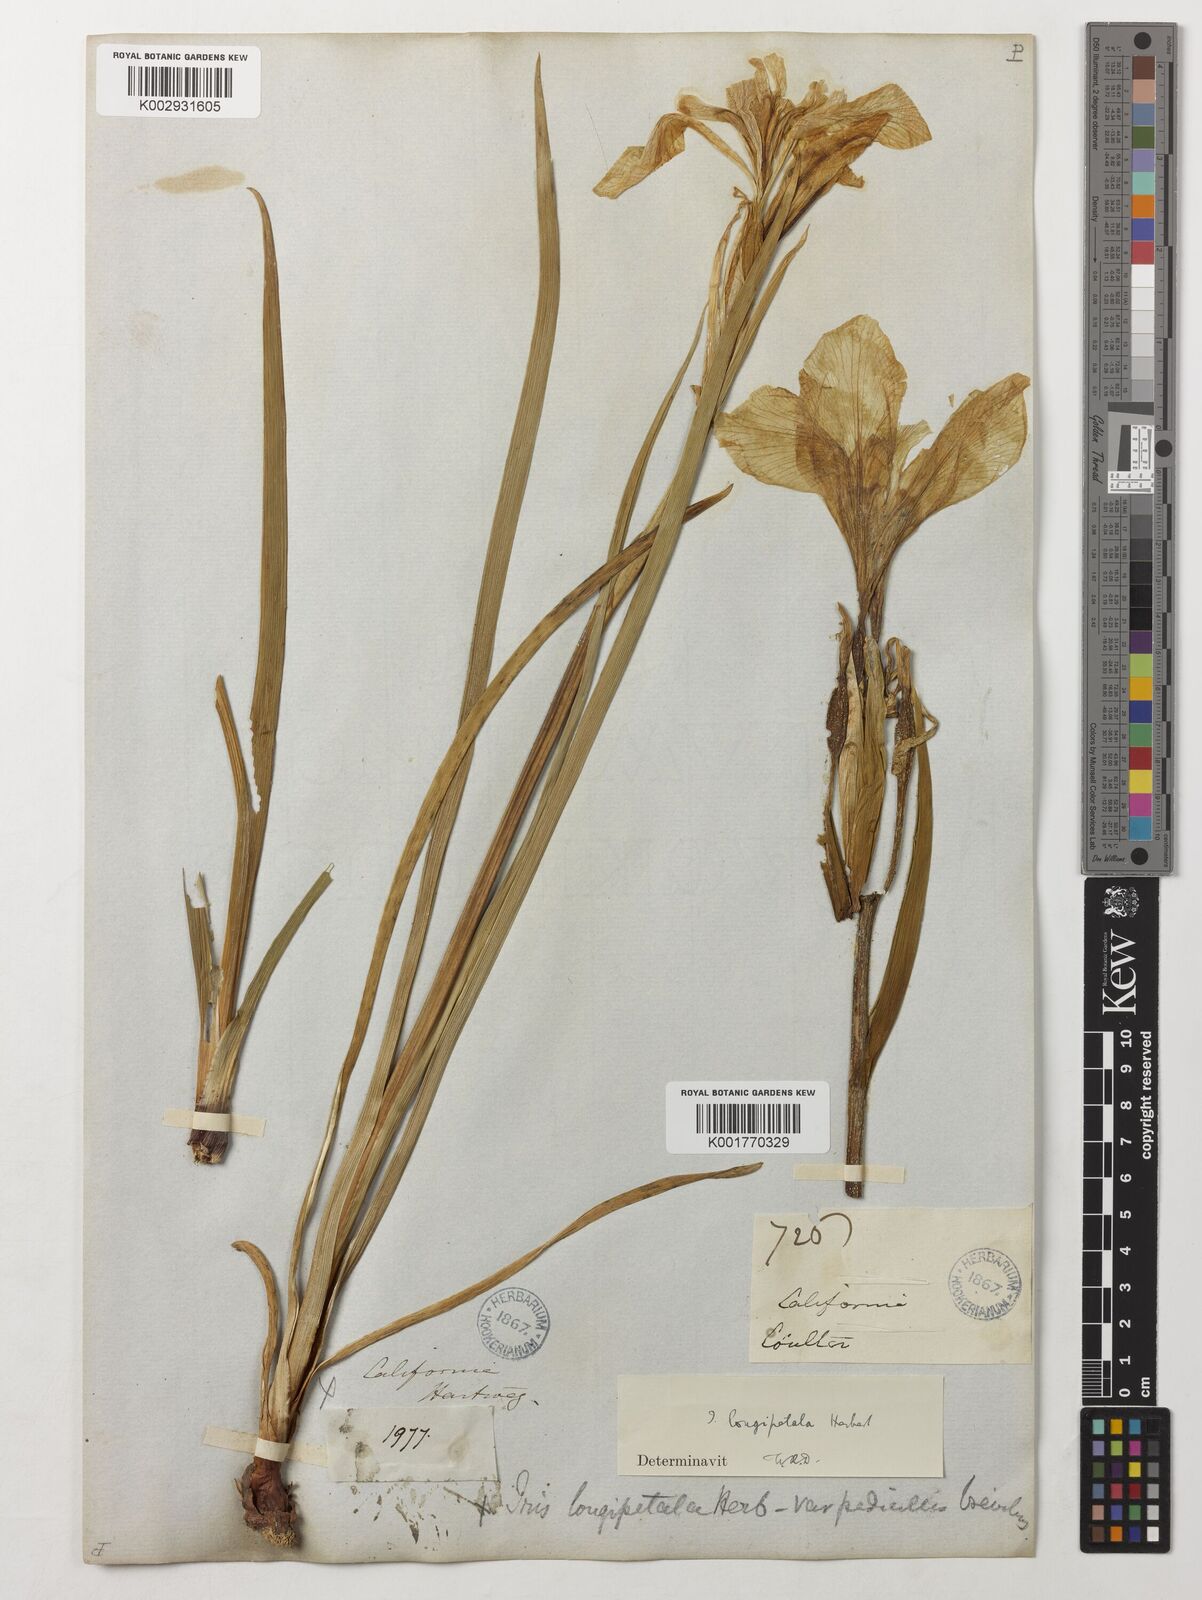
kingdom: Plantae
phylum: Tracheophyta
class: Liliopsida
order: Asparagales
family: Iridaceae
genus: Iris
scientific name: Iris longipetala
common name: Long-petal iris
